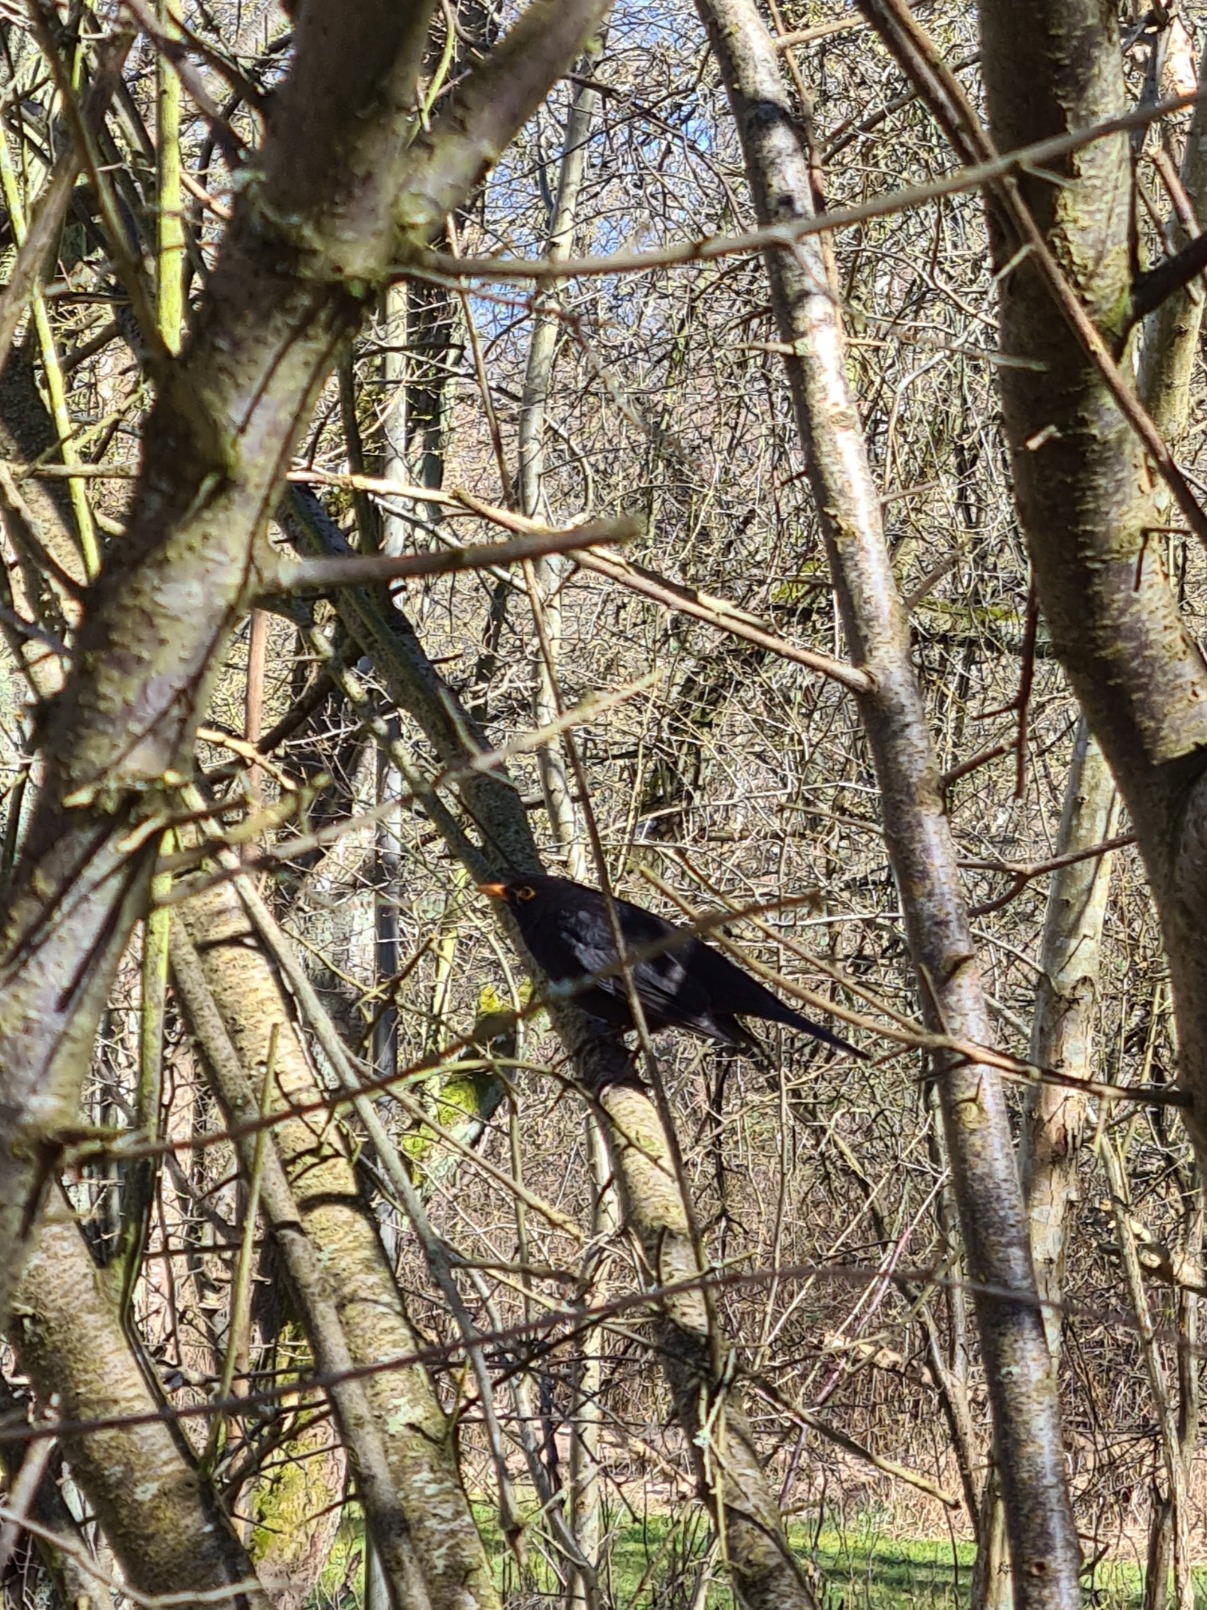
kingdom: Animalia
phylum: Chordata
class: Aves
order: Passeriformes
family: Turdidae
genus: Turdus
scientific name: Turdus merula
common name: Solsort
